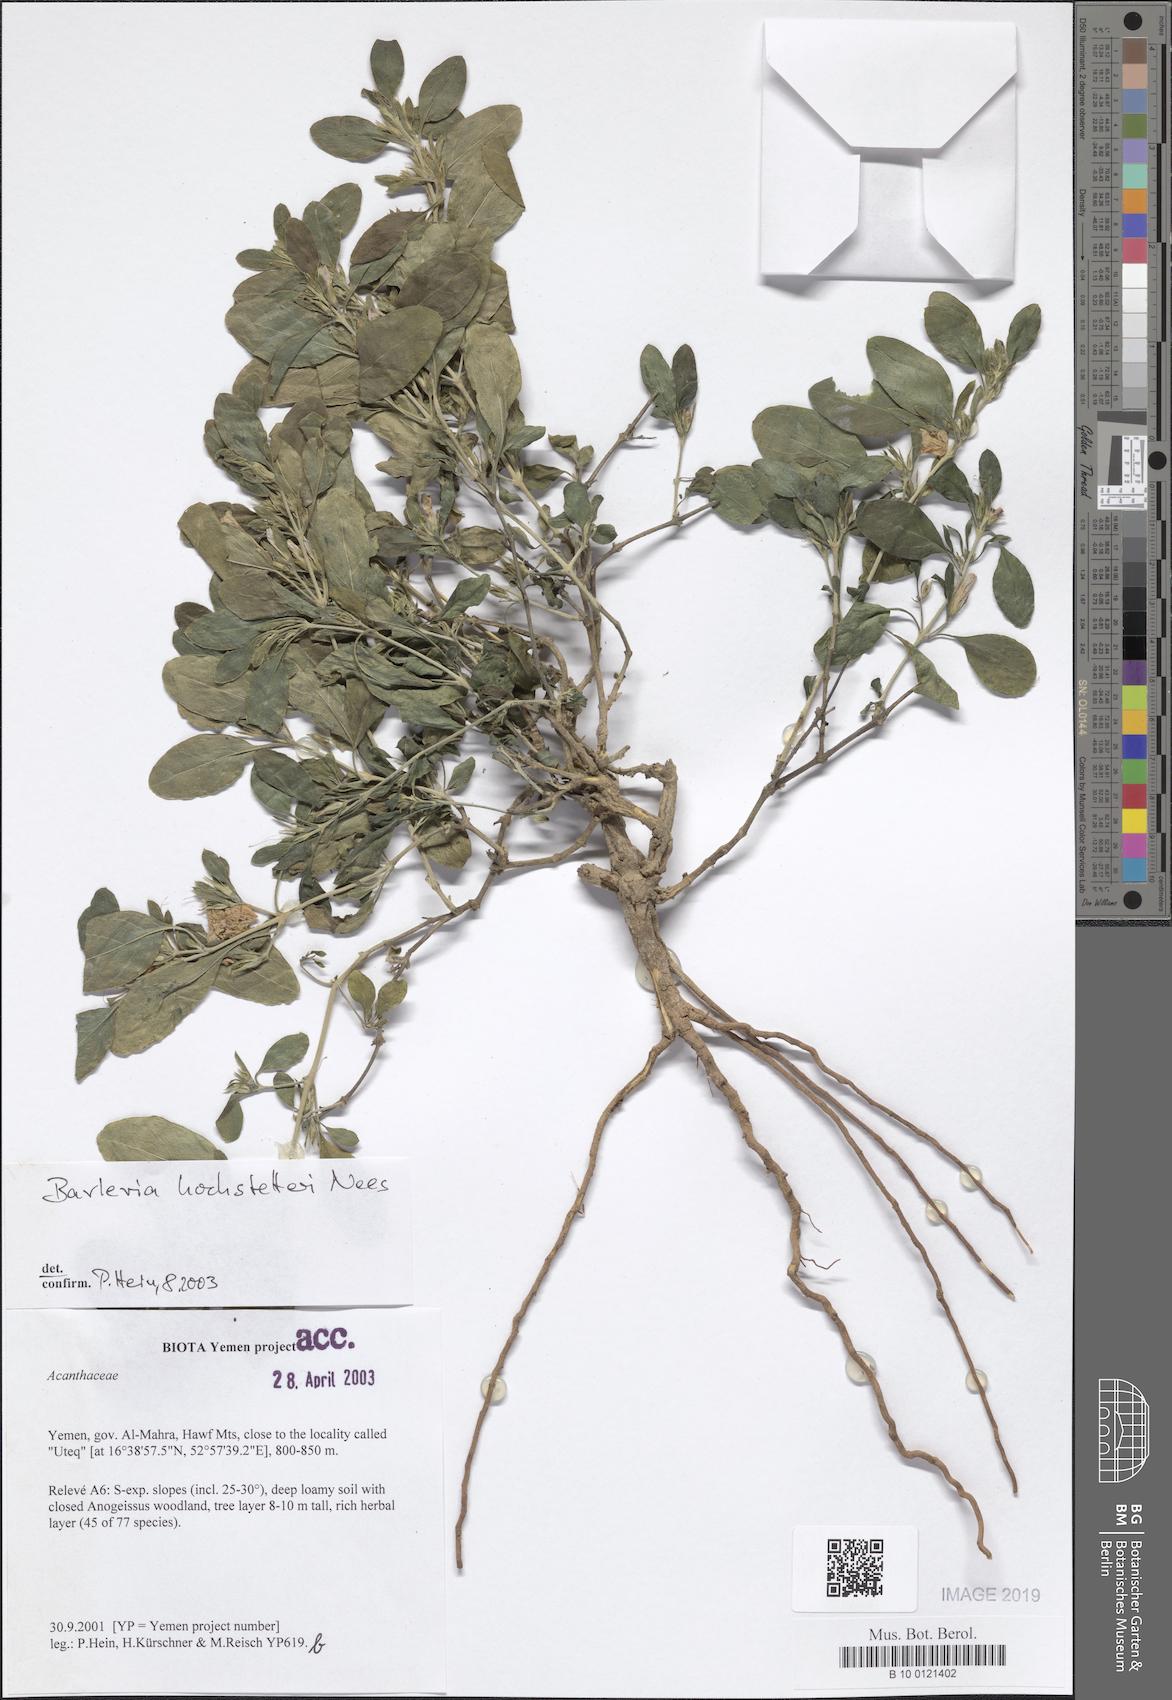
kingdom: Plantae
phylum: Tracheophyta
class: Magnoliopsida
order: Lamiales
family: Acanthaceae
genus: Barleria
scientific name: Barleria hochstetteri
